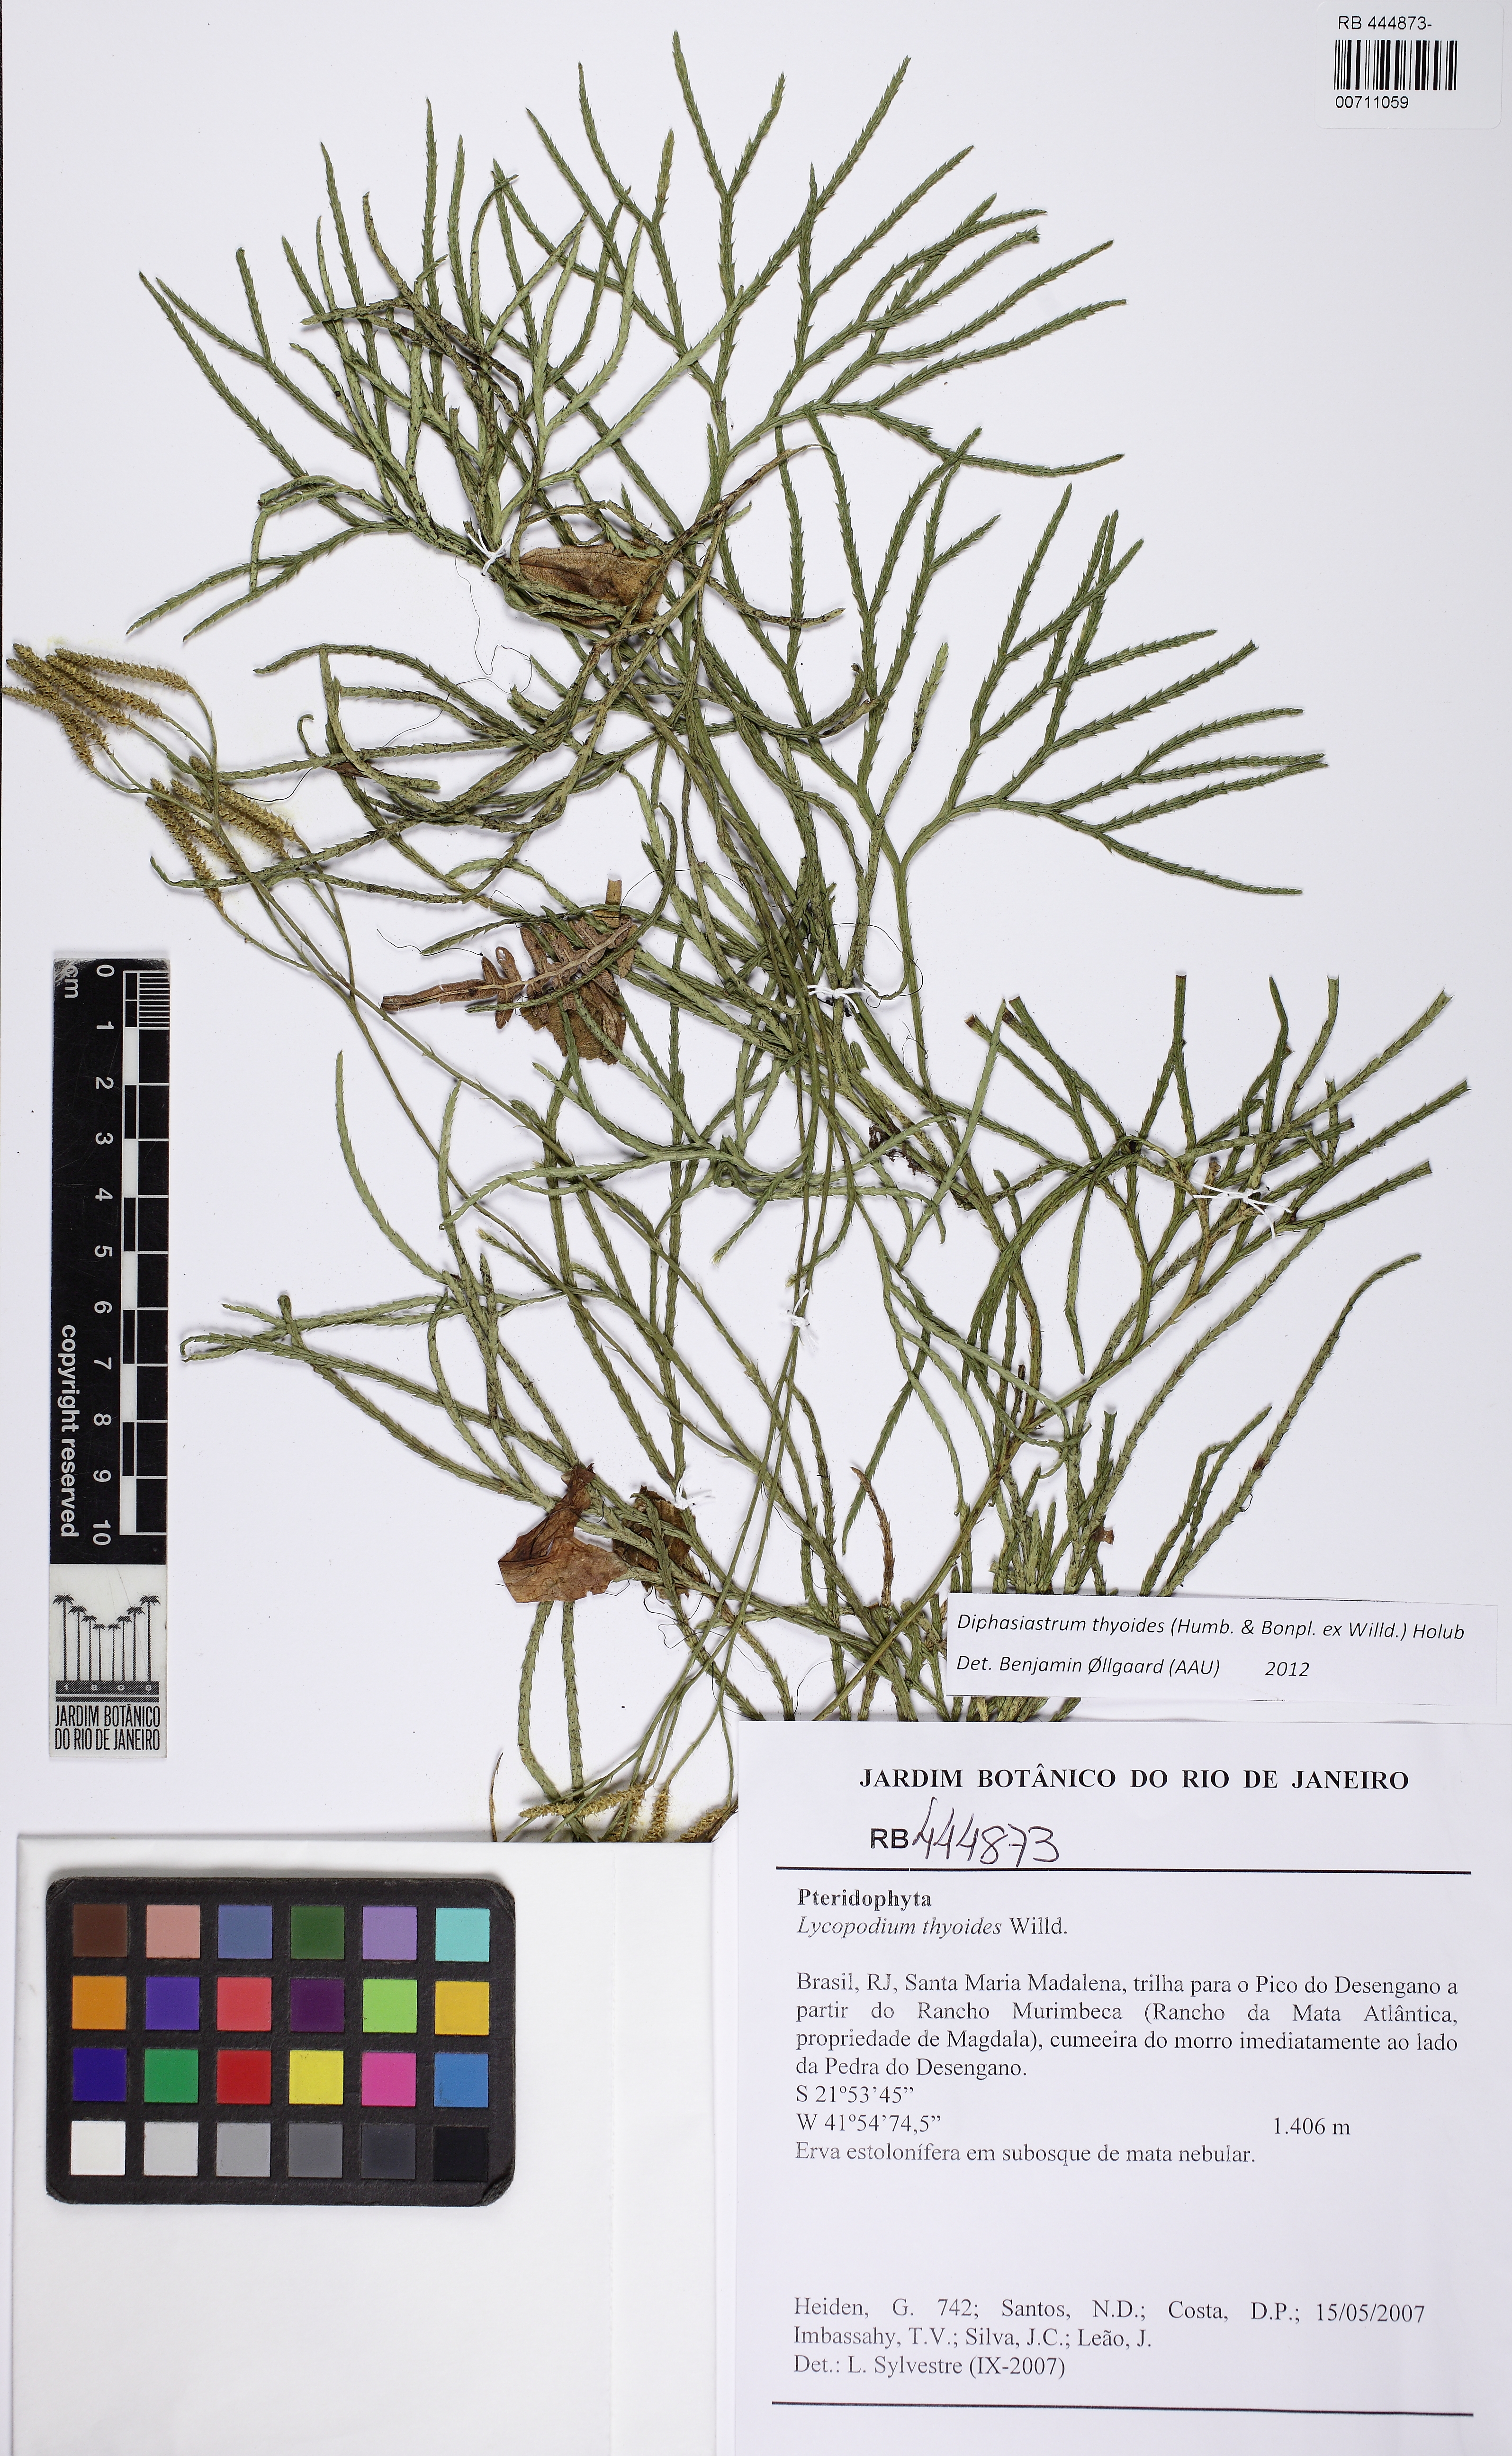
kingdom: Plantae
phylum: Tracheophyta
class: Lycopodiopsida
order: Lycopodiales
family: Lycopodiaceae
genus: Diphasiastrum
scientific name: Diphasiastrum thyoides
